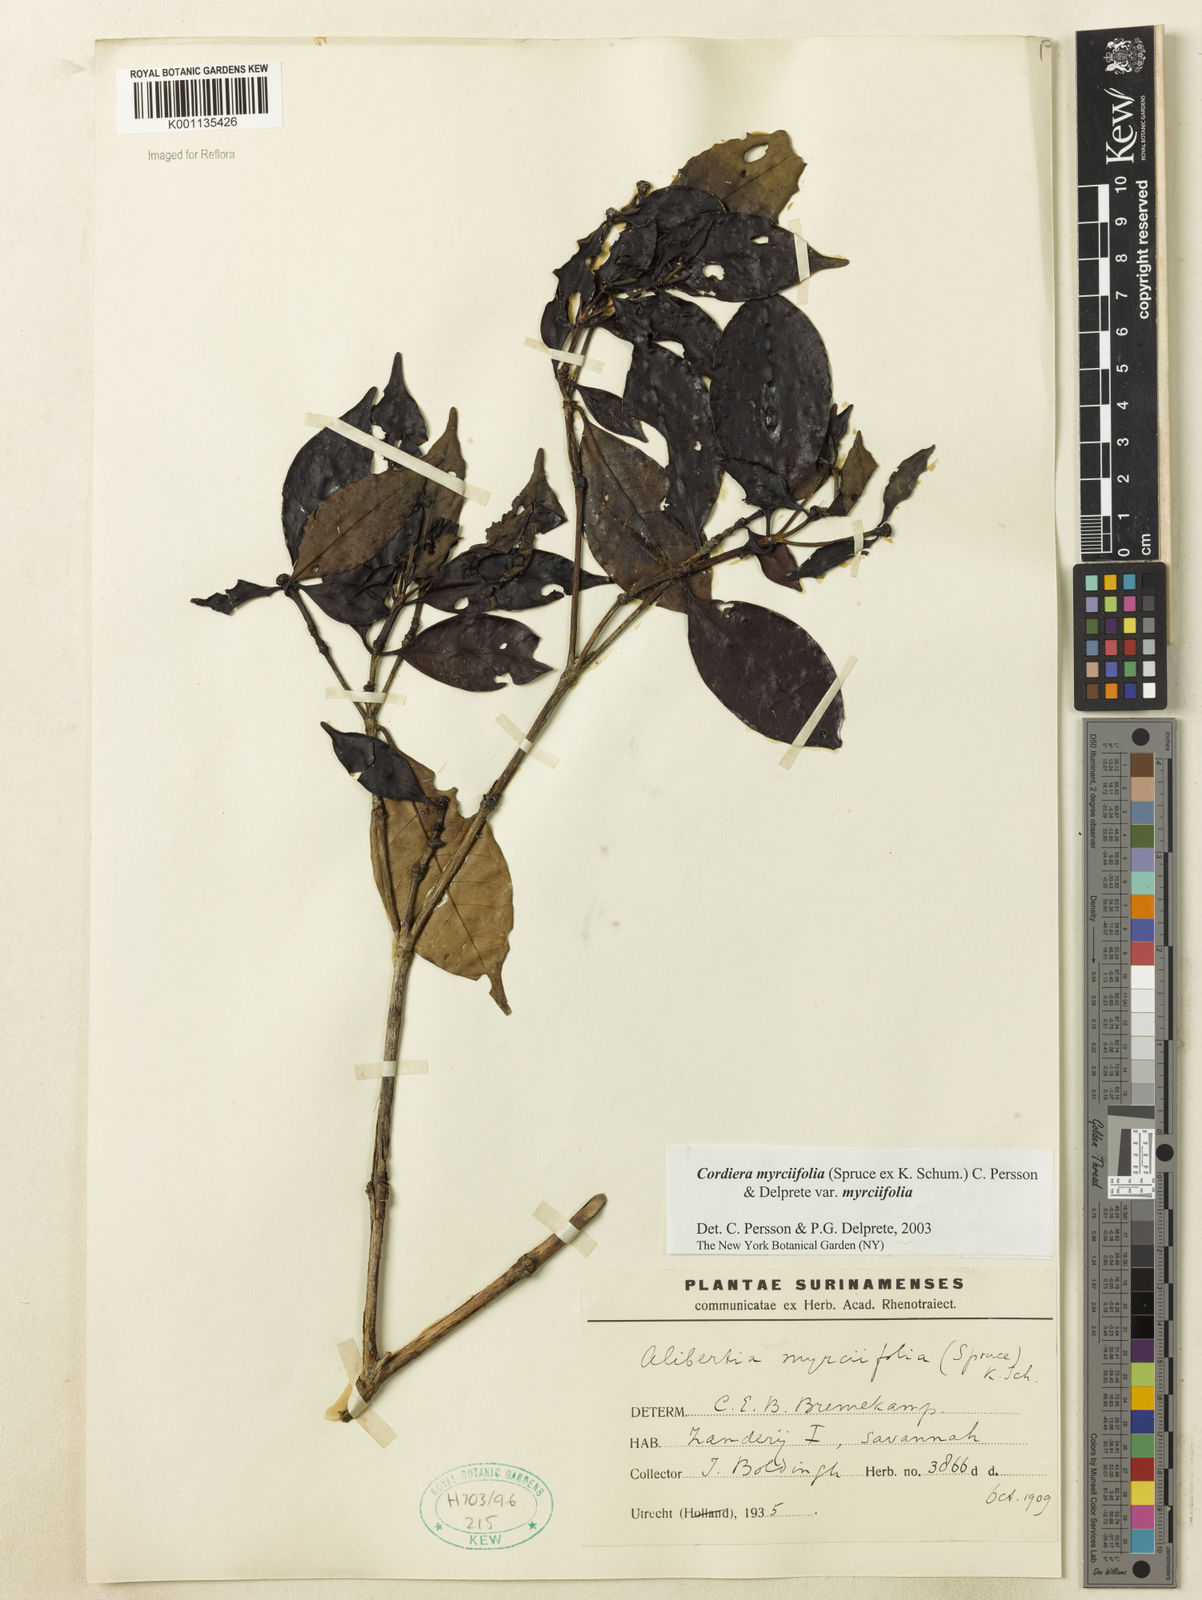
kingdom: Plantae
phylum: Tracheophyta
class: Magnoliopsida
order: Gentianales
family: Rubiaceae
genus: Cordiera
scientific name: Cordiera myrciifolia
